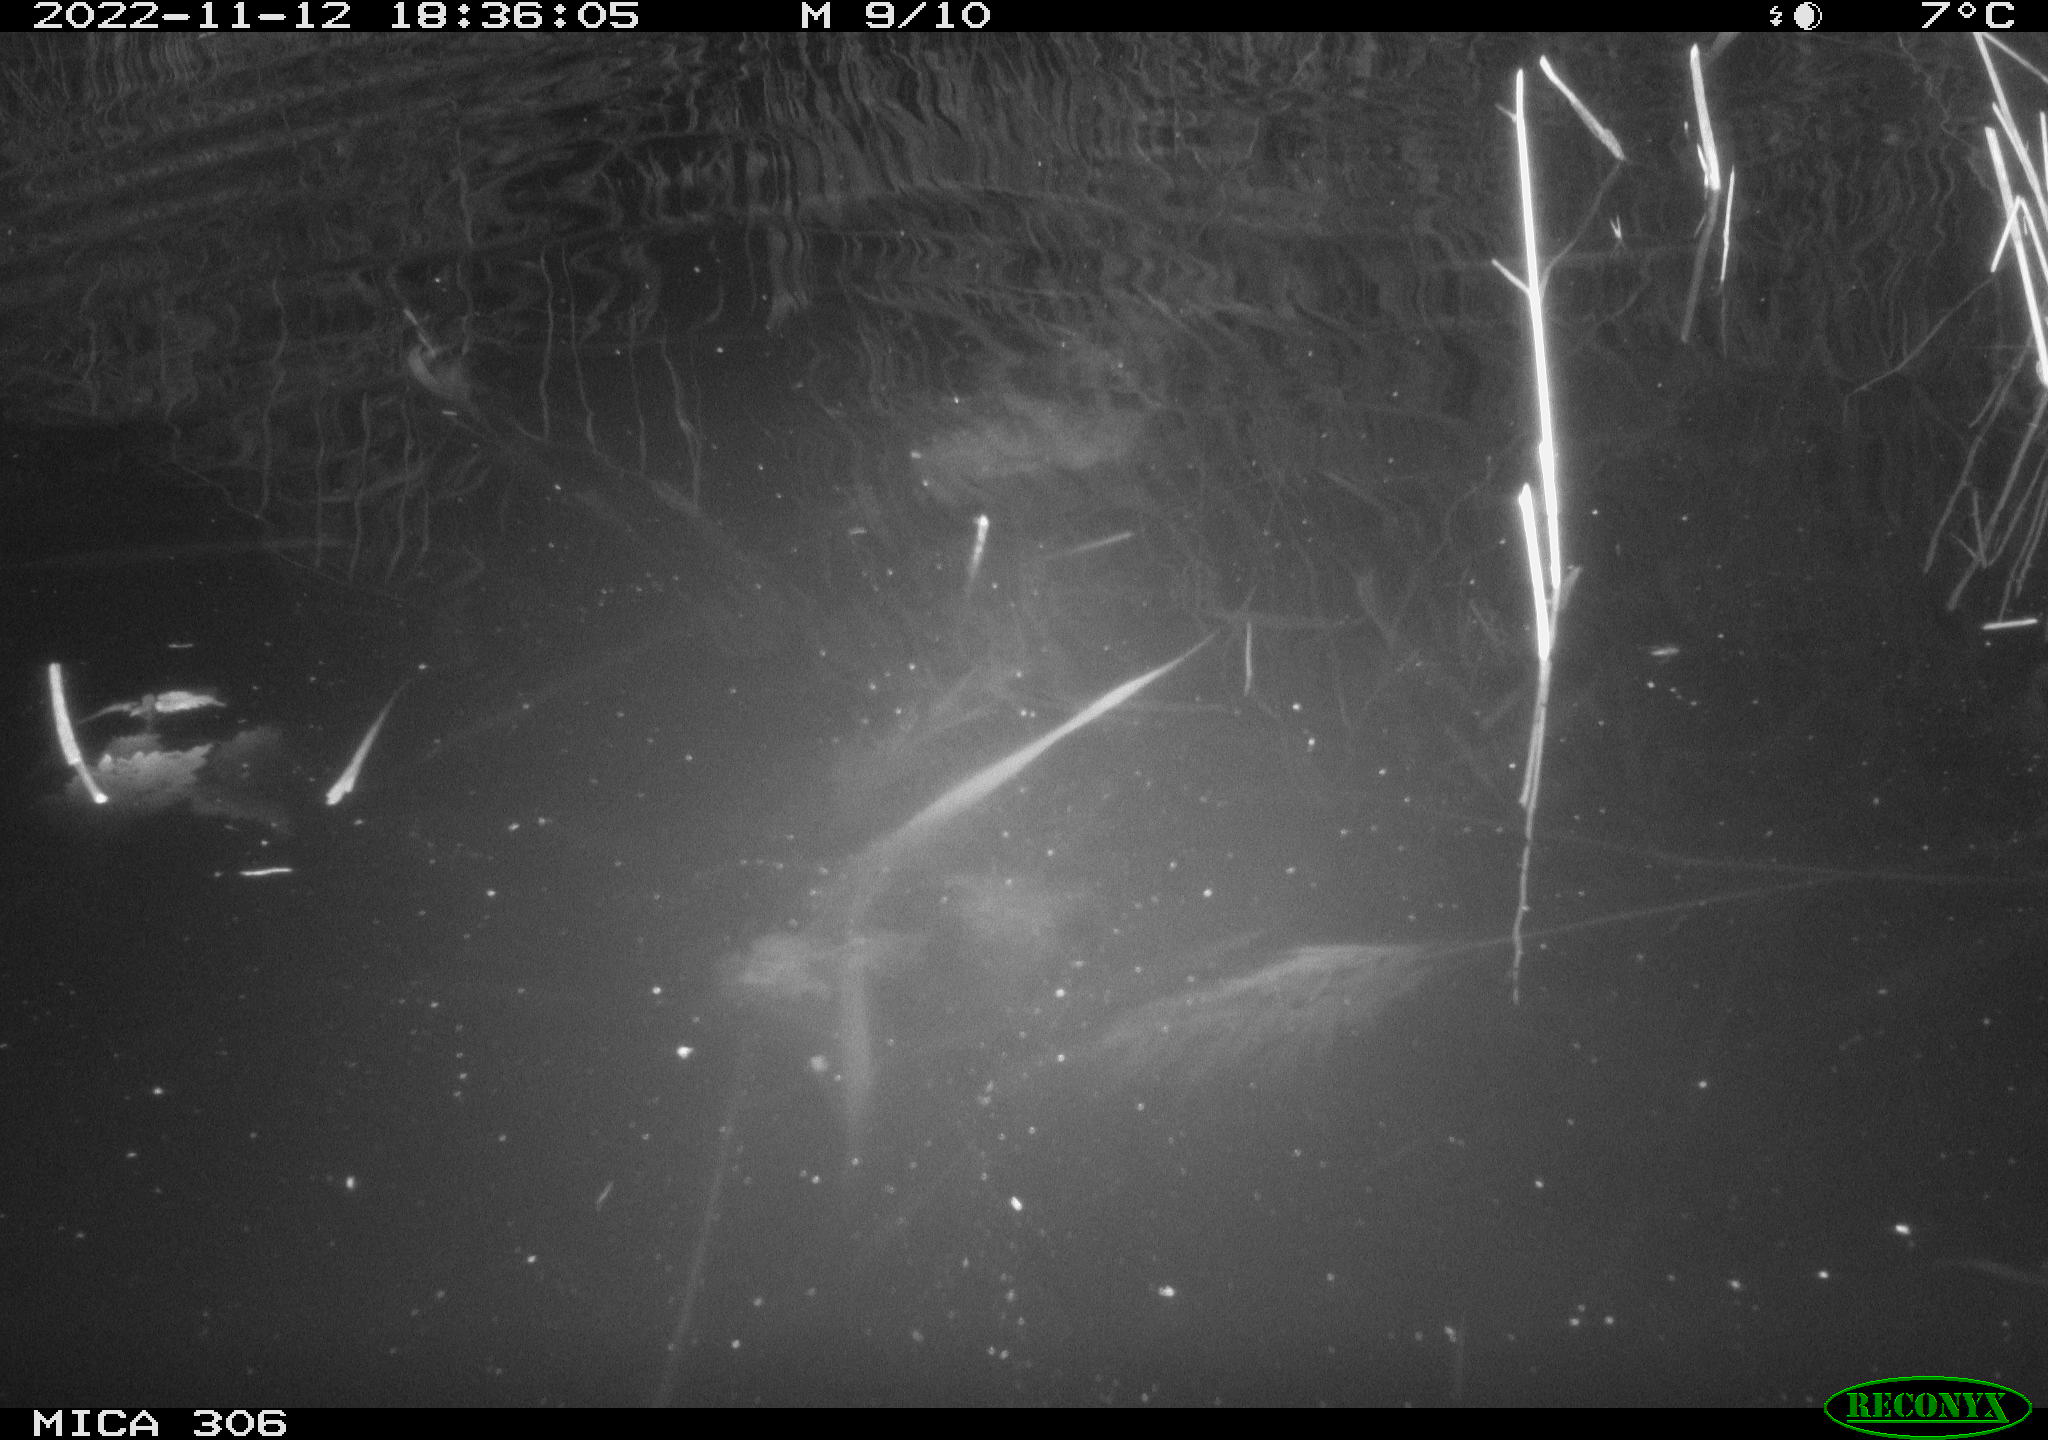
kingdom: Animalia
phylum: Chordata
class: Mammalia
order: Rodentia
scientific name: Rodentia
